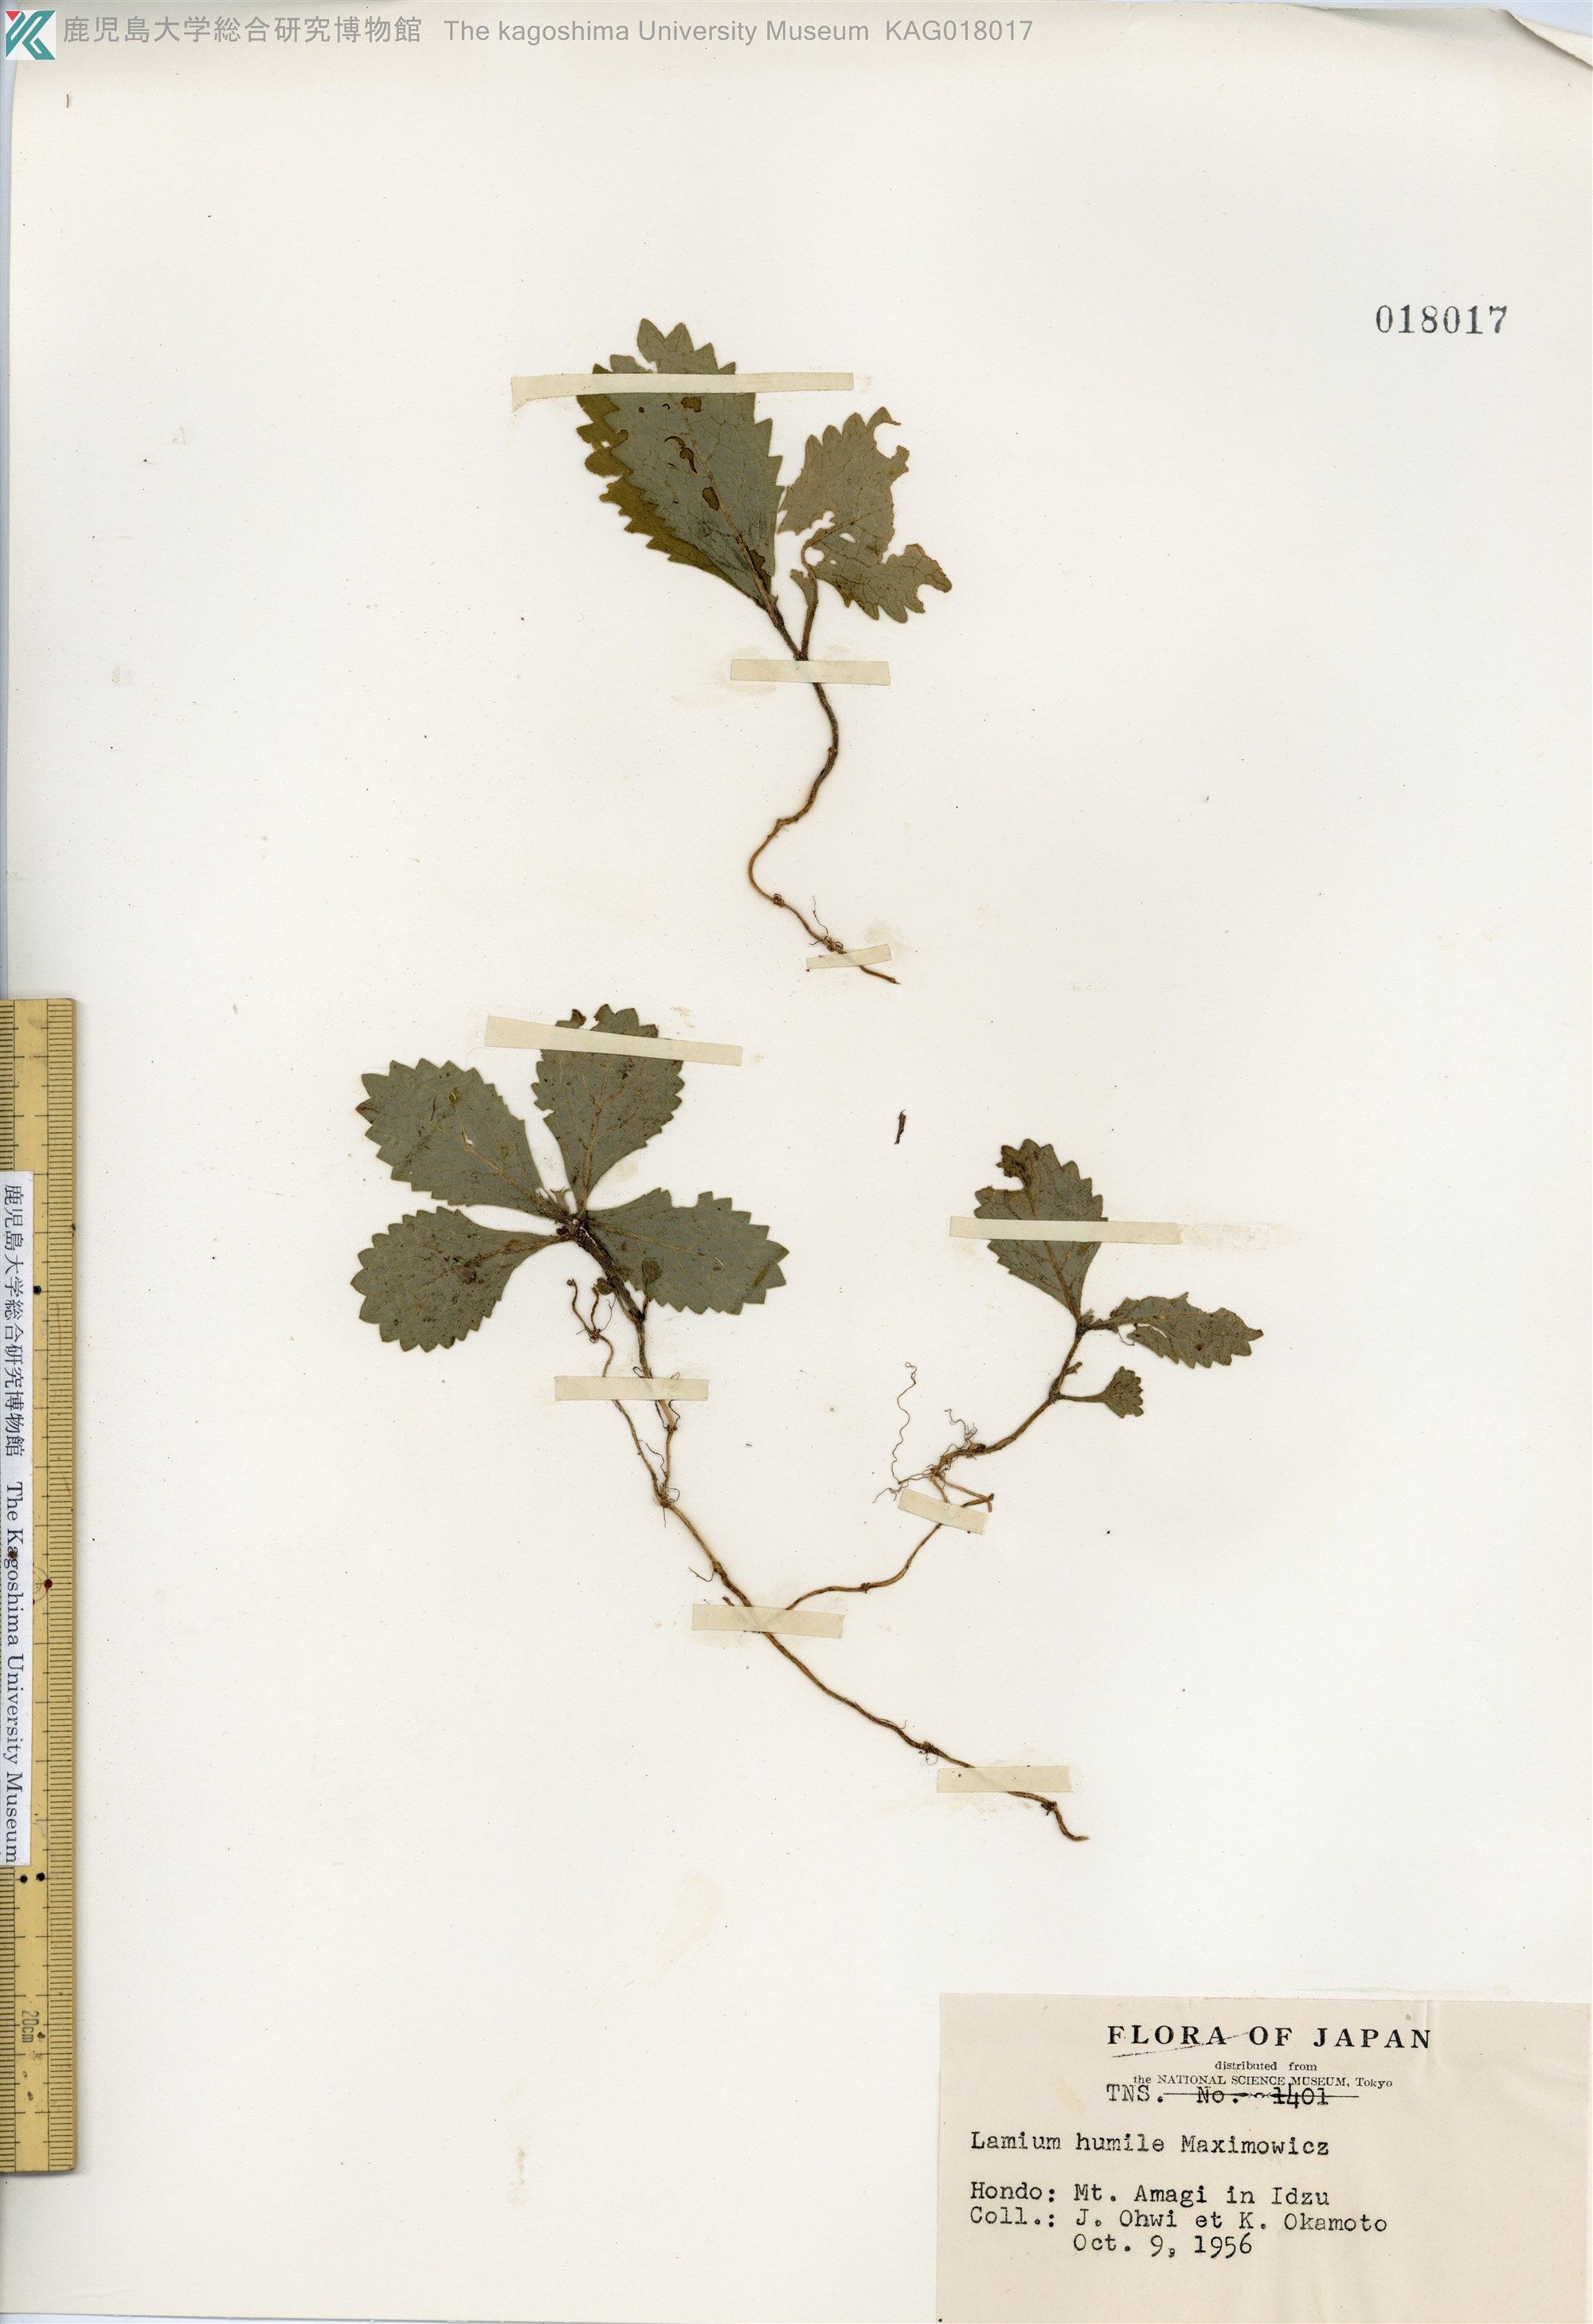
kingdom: Plantae
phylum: Tracheophyta
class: Magnoliopsida
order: Lamiales
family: Lamiaceae
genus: Ajugoides
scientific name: Ajugoides humilis
